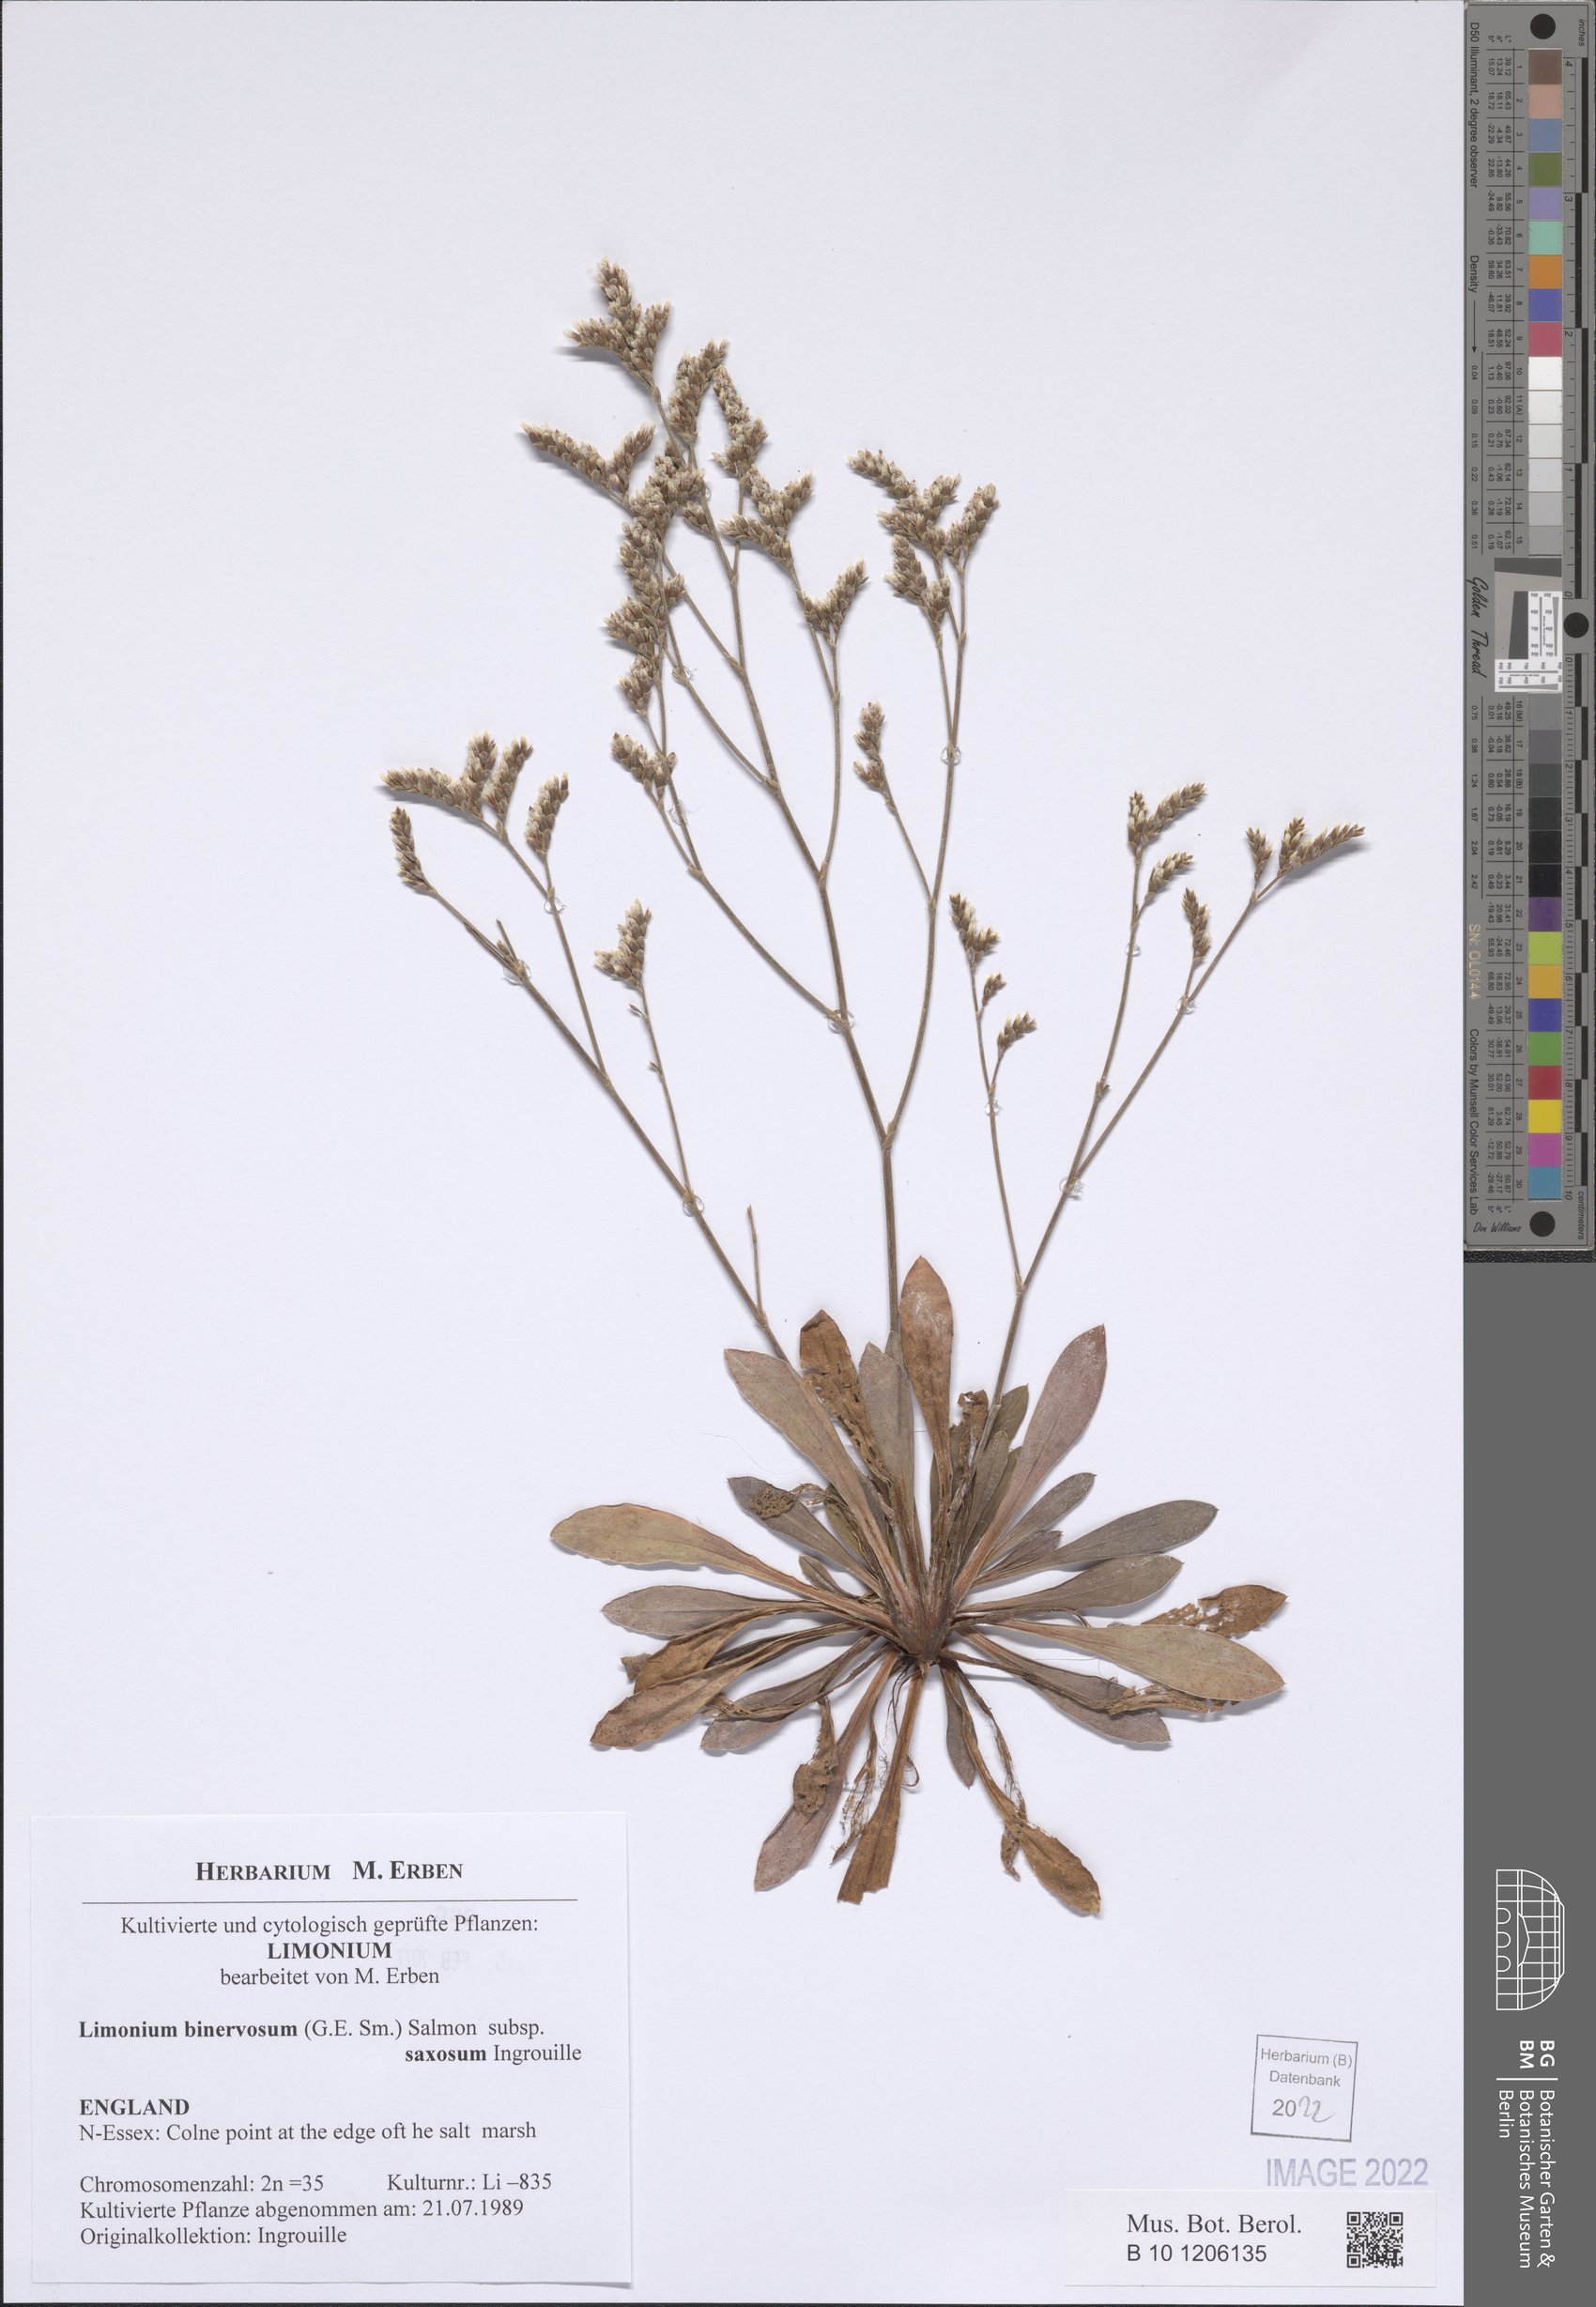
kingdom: Plantae
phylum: Tracheophyta
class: Magnoliopsida
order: Caryophyllales
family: Plumbaginaceae
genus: Limonium
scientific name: Limonium binervosum
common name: Rock sea-lavender
